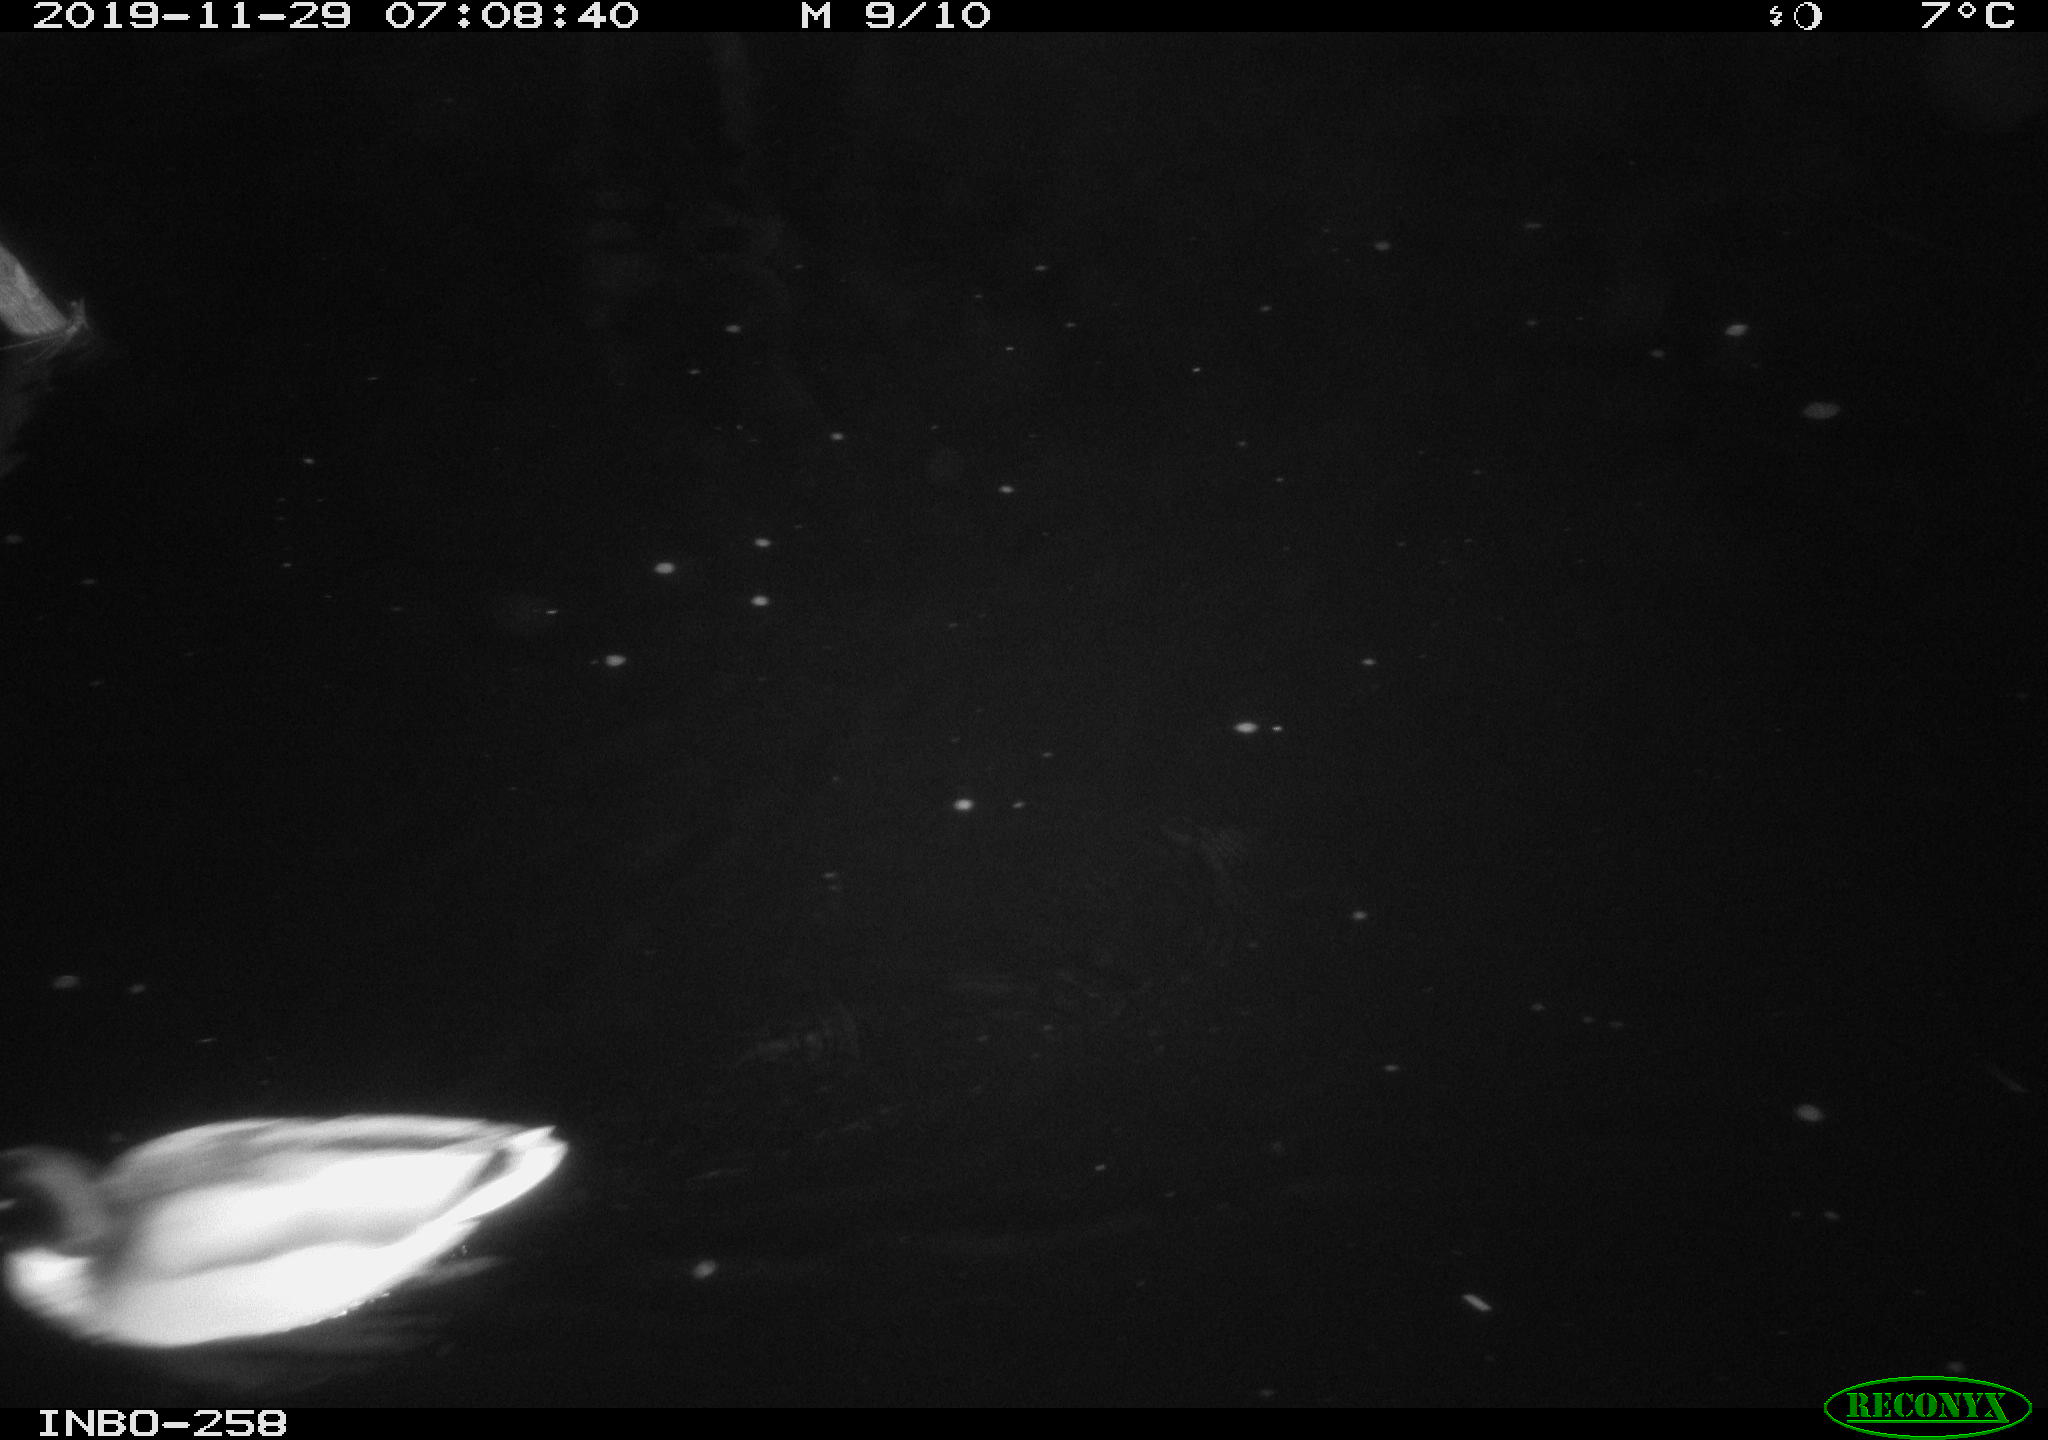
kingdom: Animalia
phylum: Chordata
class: Aves
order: Anseriformes
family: Anatidae
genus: Anas
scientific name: Anas platyrhynchos
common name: Mallard
